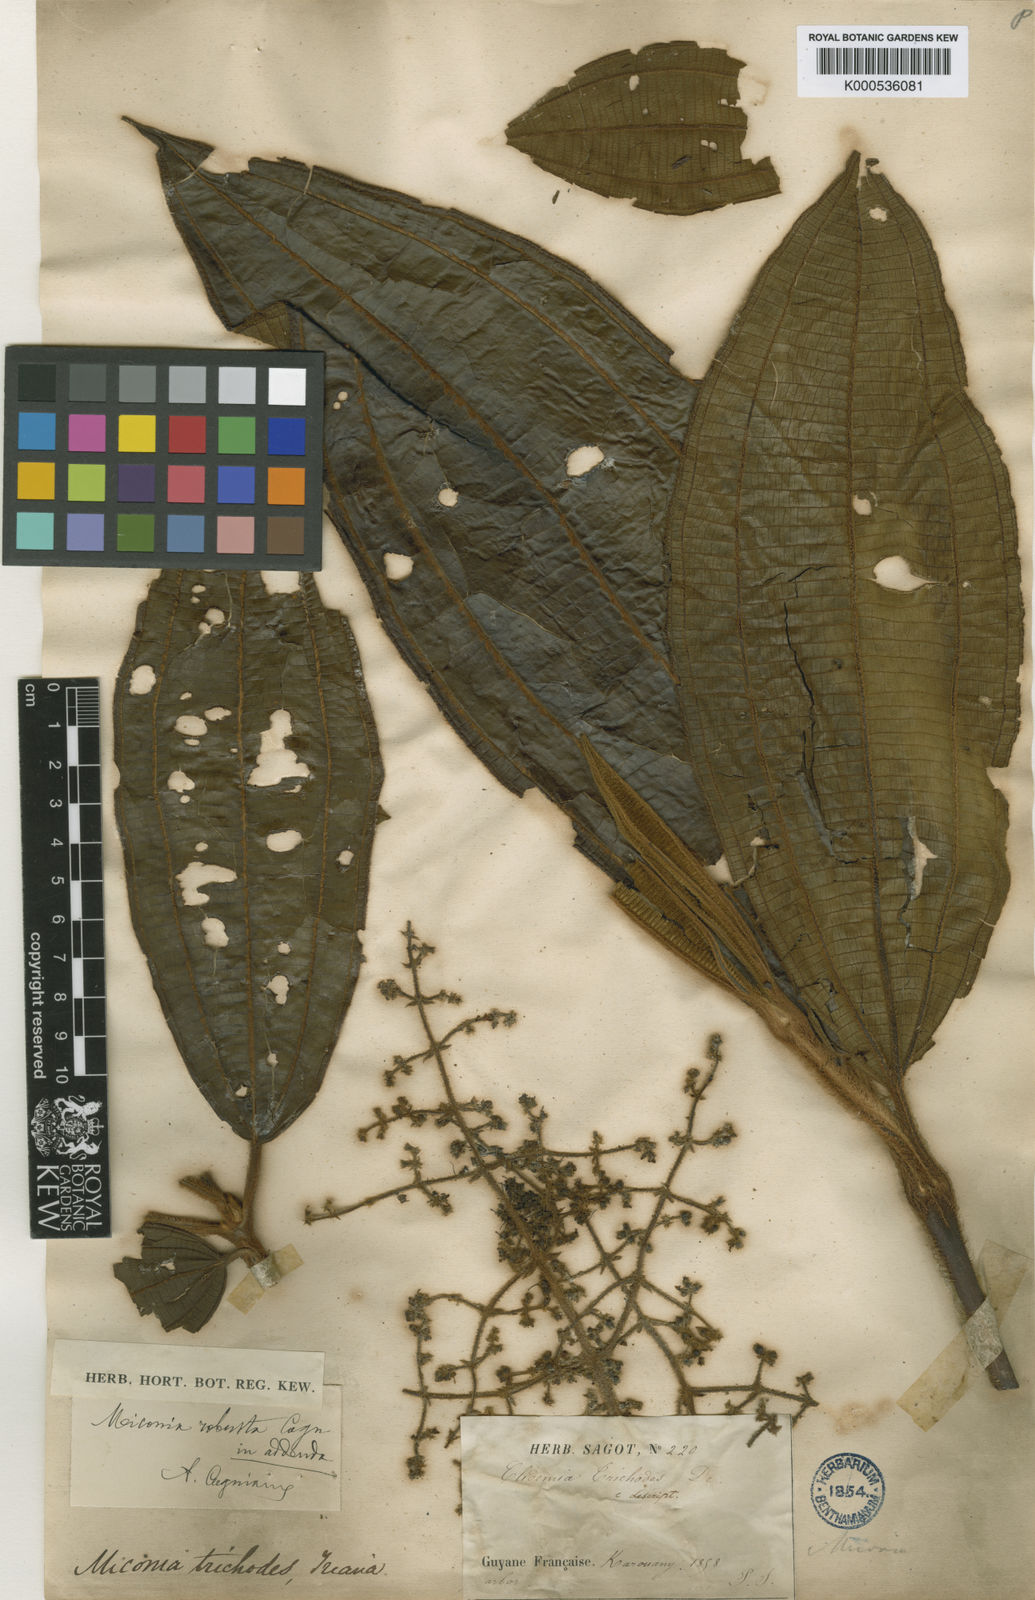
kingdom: Plantae
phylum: Tracheophyta
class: Magnoliopsida
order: Myrtales
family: Melastomataceae
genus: Miconia
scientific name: Miconia tschudyoides
